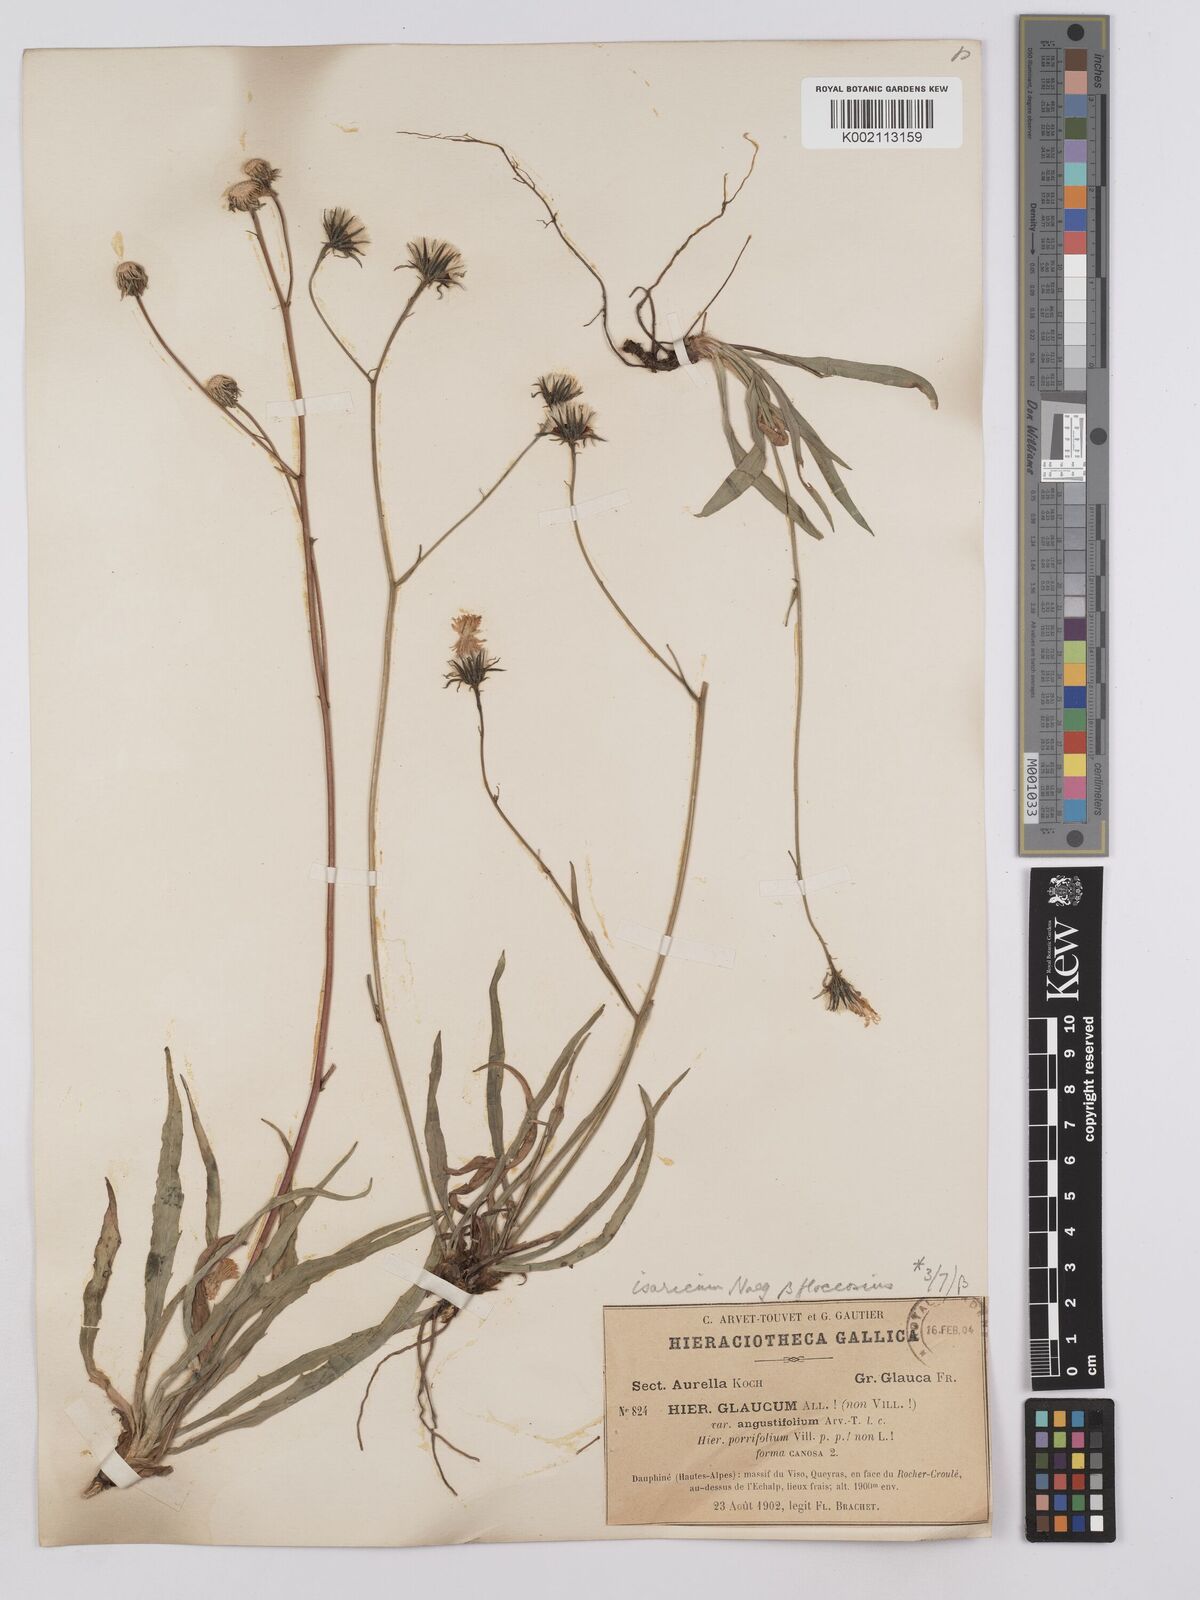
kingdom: Plantae
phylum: Tracheophyta
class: Magnoliopsida
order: Asterales
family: Asteraceae
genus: Hieracium
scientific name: Hieracium glaucum
